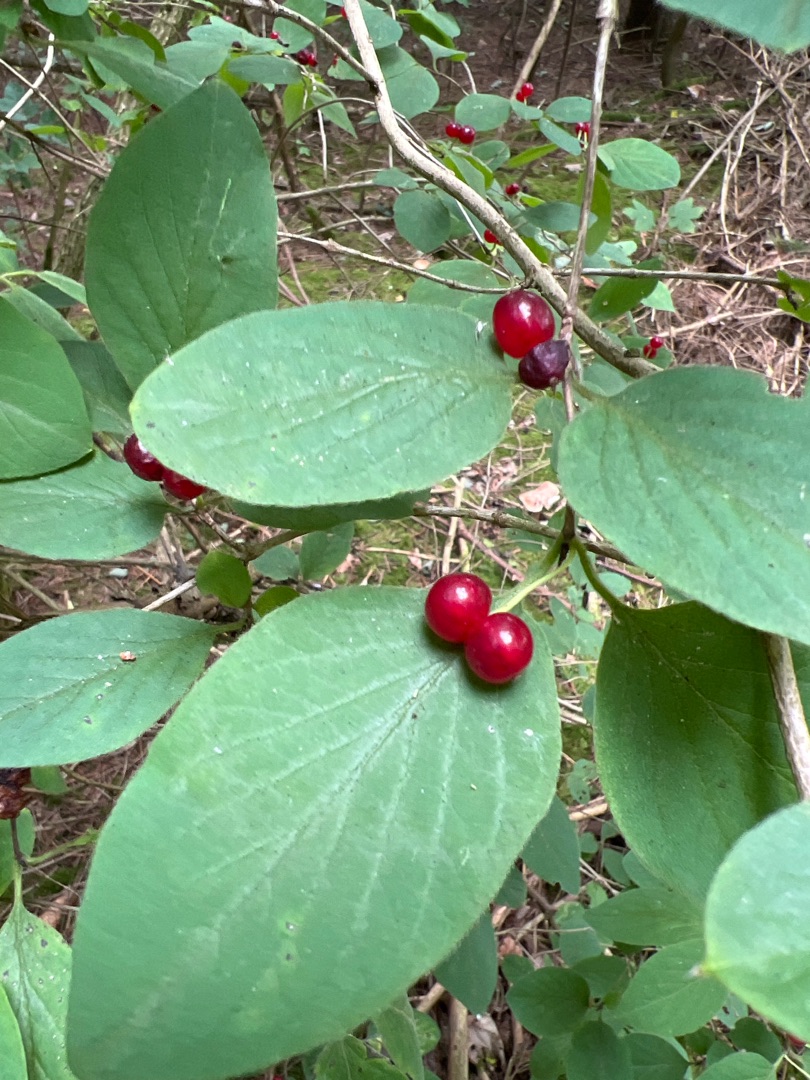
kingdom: Plantae
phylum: Tracheophyta
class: Magnoliopsida
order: Dipsacales
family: Caprifoliaceae
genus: Lonicera
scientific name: Lonicera xylosteum
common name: Dunet gedeblad
